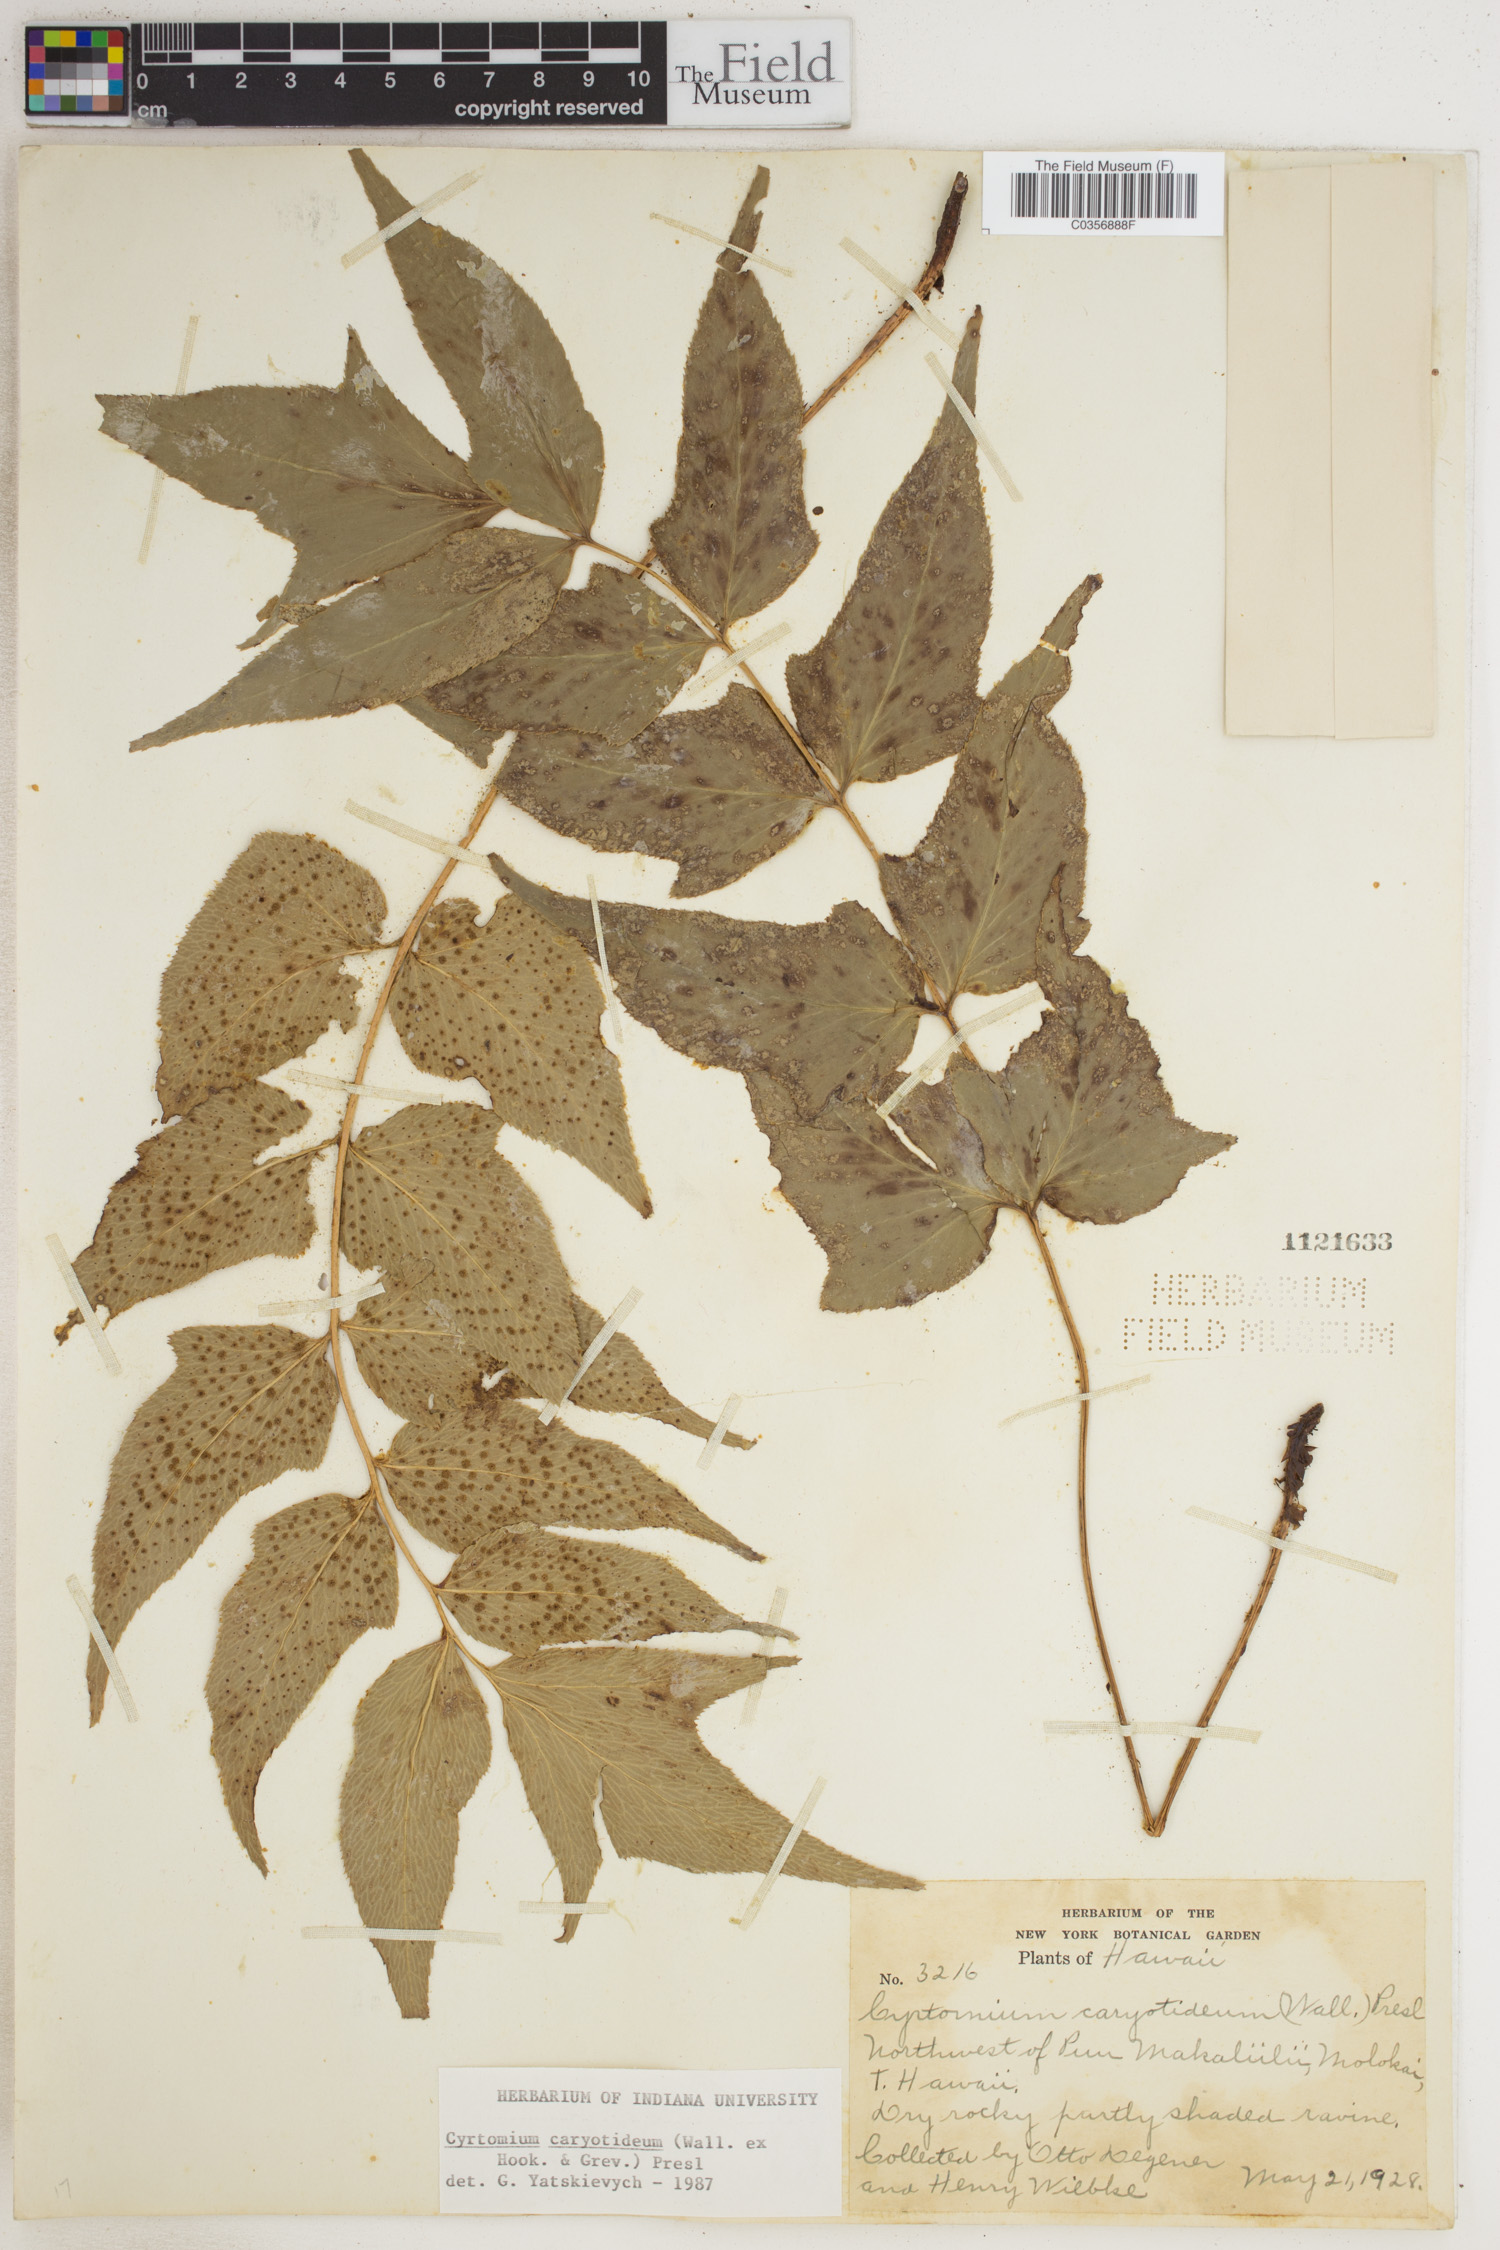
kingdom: Plantae
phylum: Tracheophyta
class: Polypodiopsida
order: Polypodiales
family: Dryopteridaceae
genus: Cyrtomium
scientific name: Cyrtomium caryotideum
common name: Asiatic holly fern
